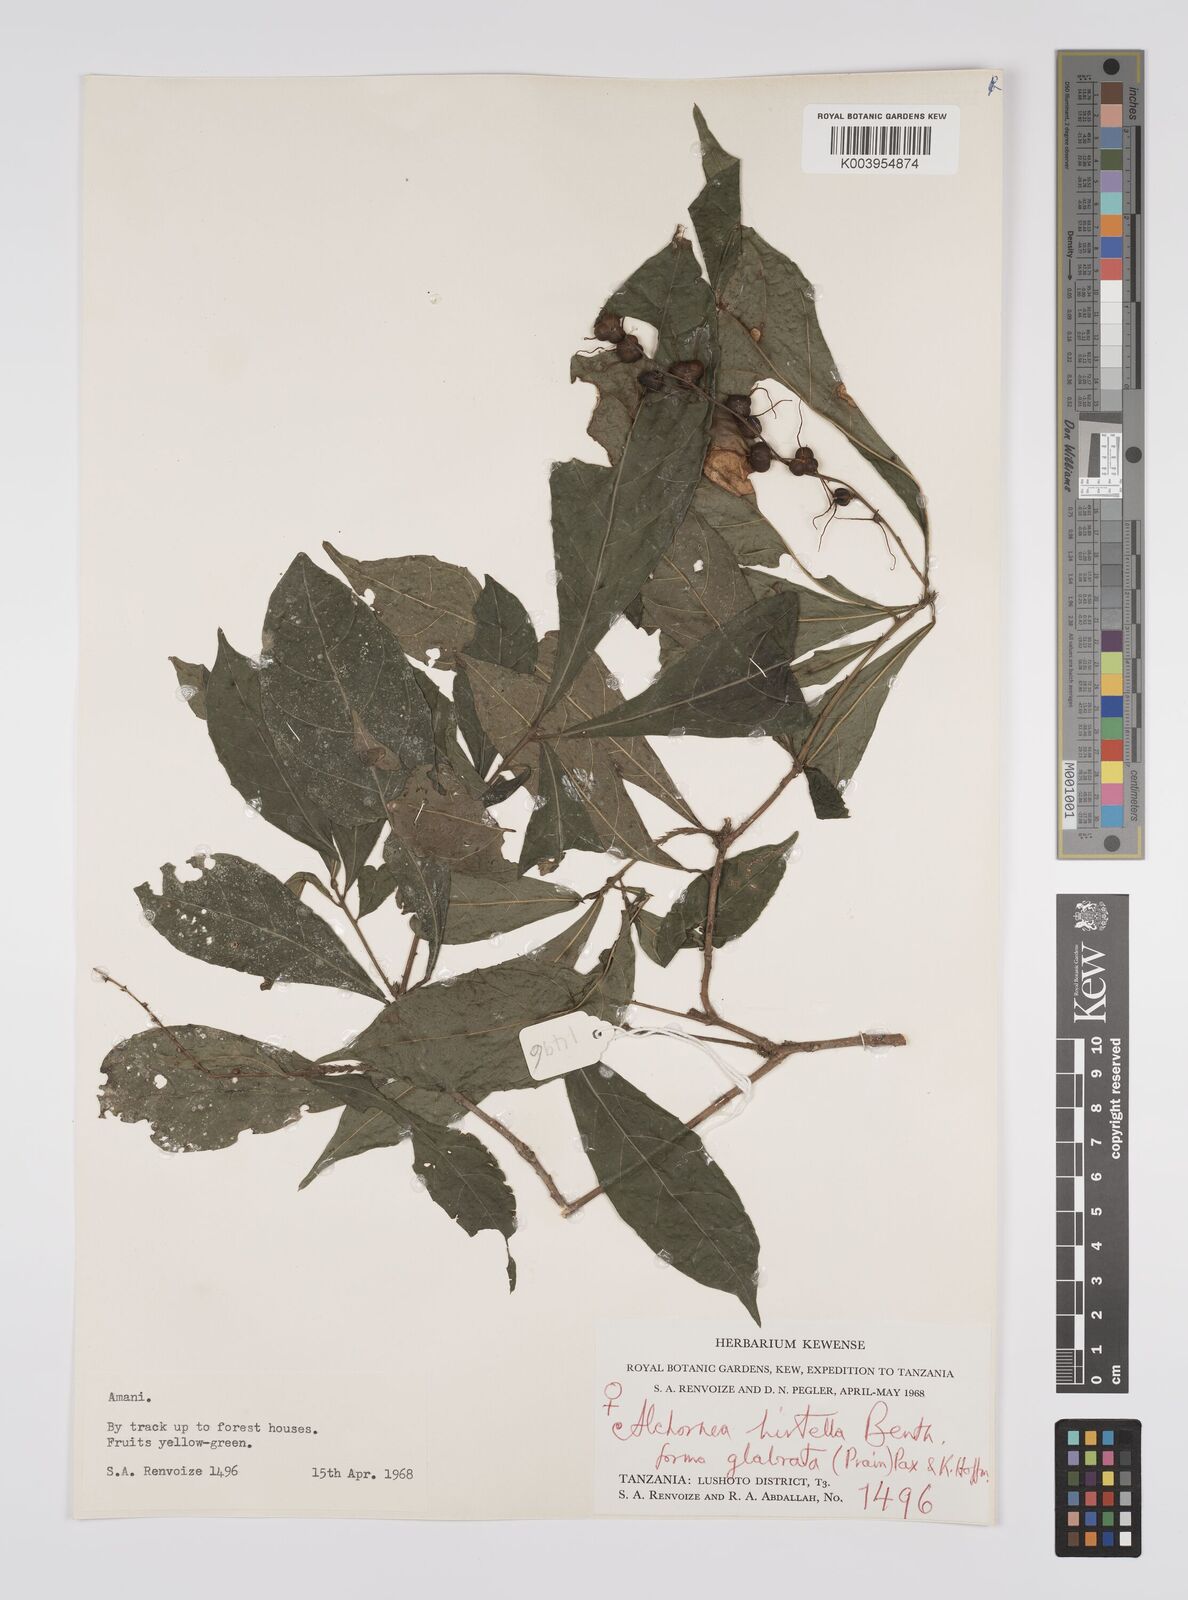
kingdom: Plantae
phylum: Tracheophyta
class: Magnoliopsida
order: Malpighiales
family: Euphorbiaceae
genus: Alchornea
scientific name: Alchornea hirtella
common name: Forest bead-string
